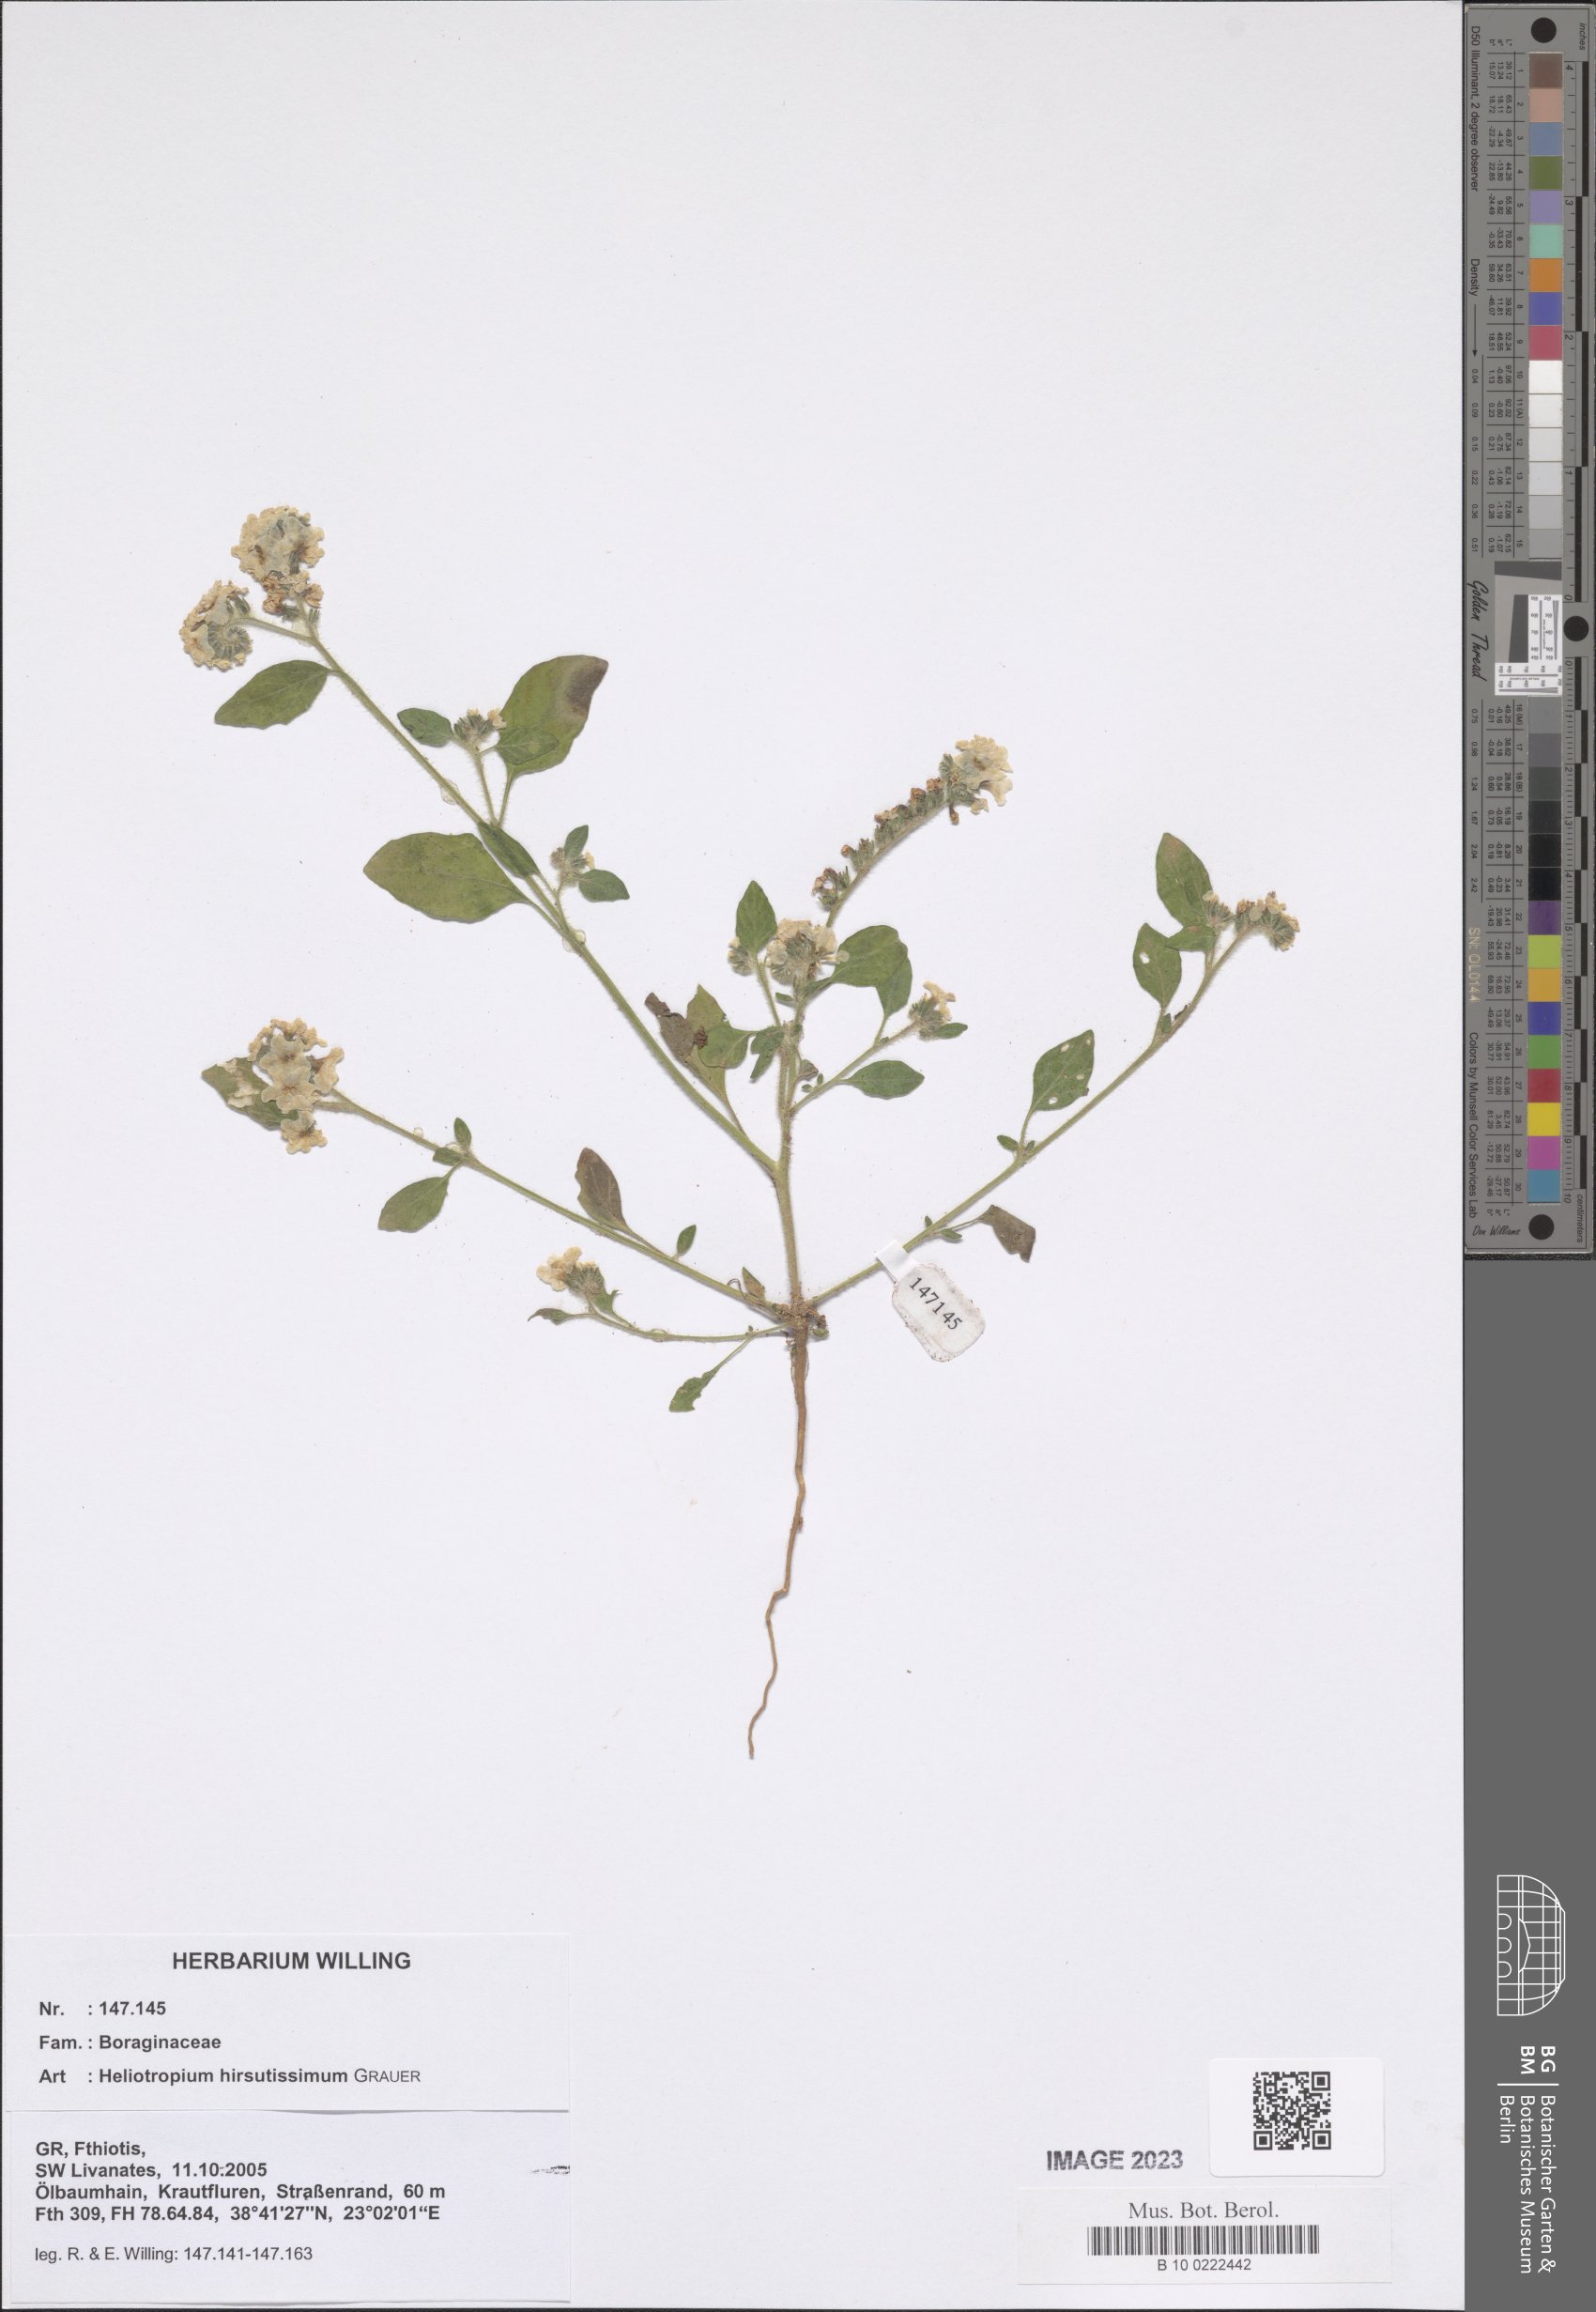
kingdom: Plantae
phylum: Tracheophyta
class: Magnoliopsida
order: Boraginales
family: Heliotropiaceae
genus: Heliotropium
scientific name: Heliotropium hirsutissimum
